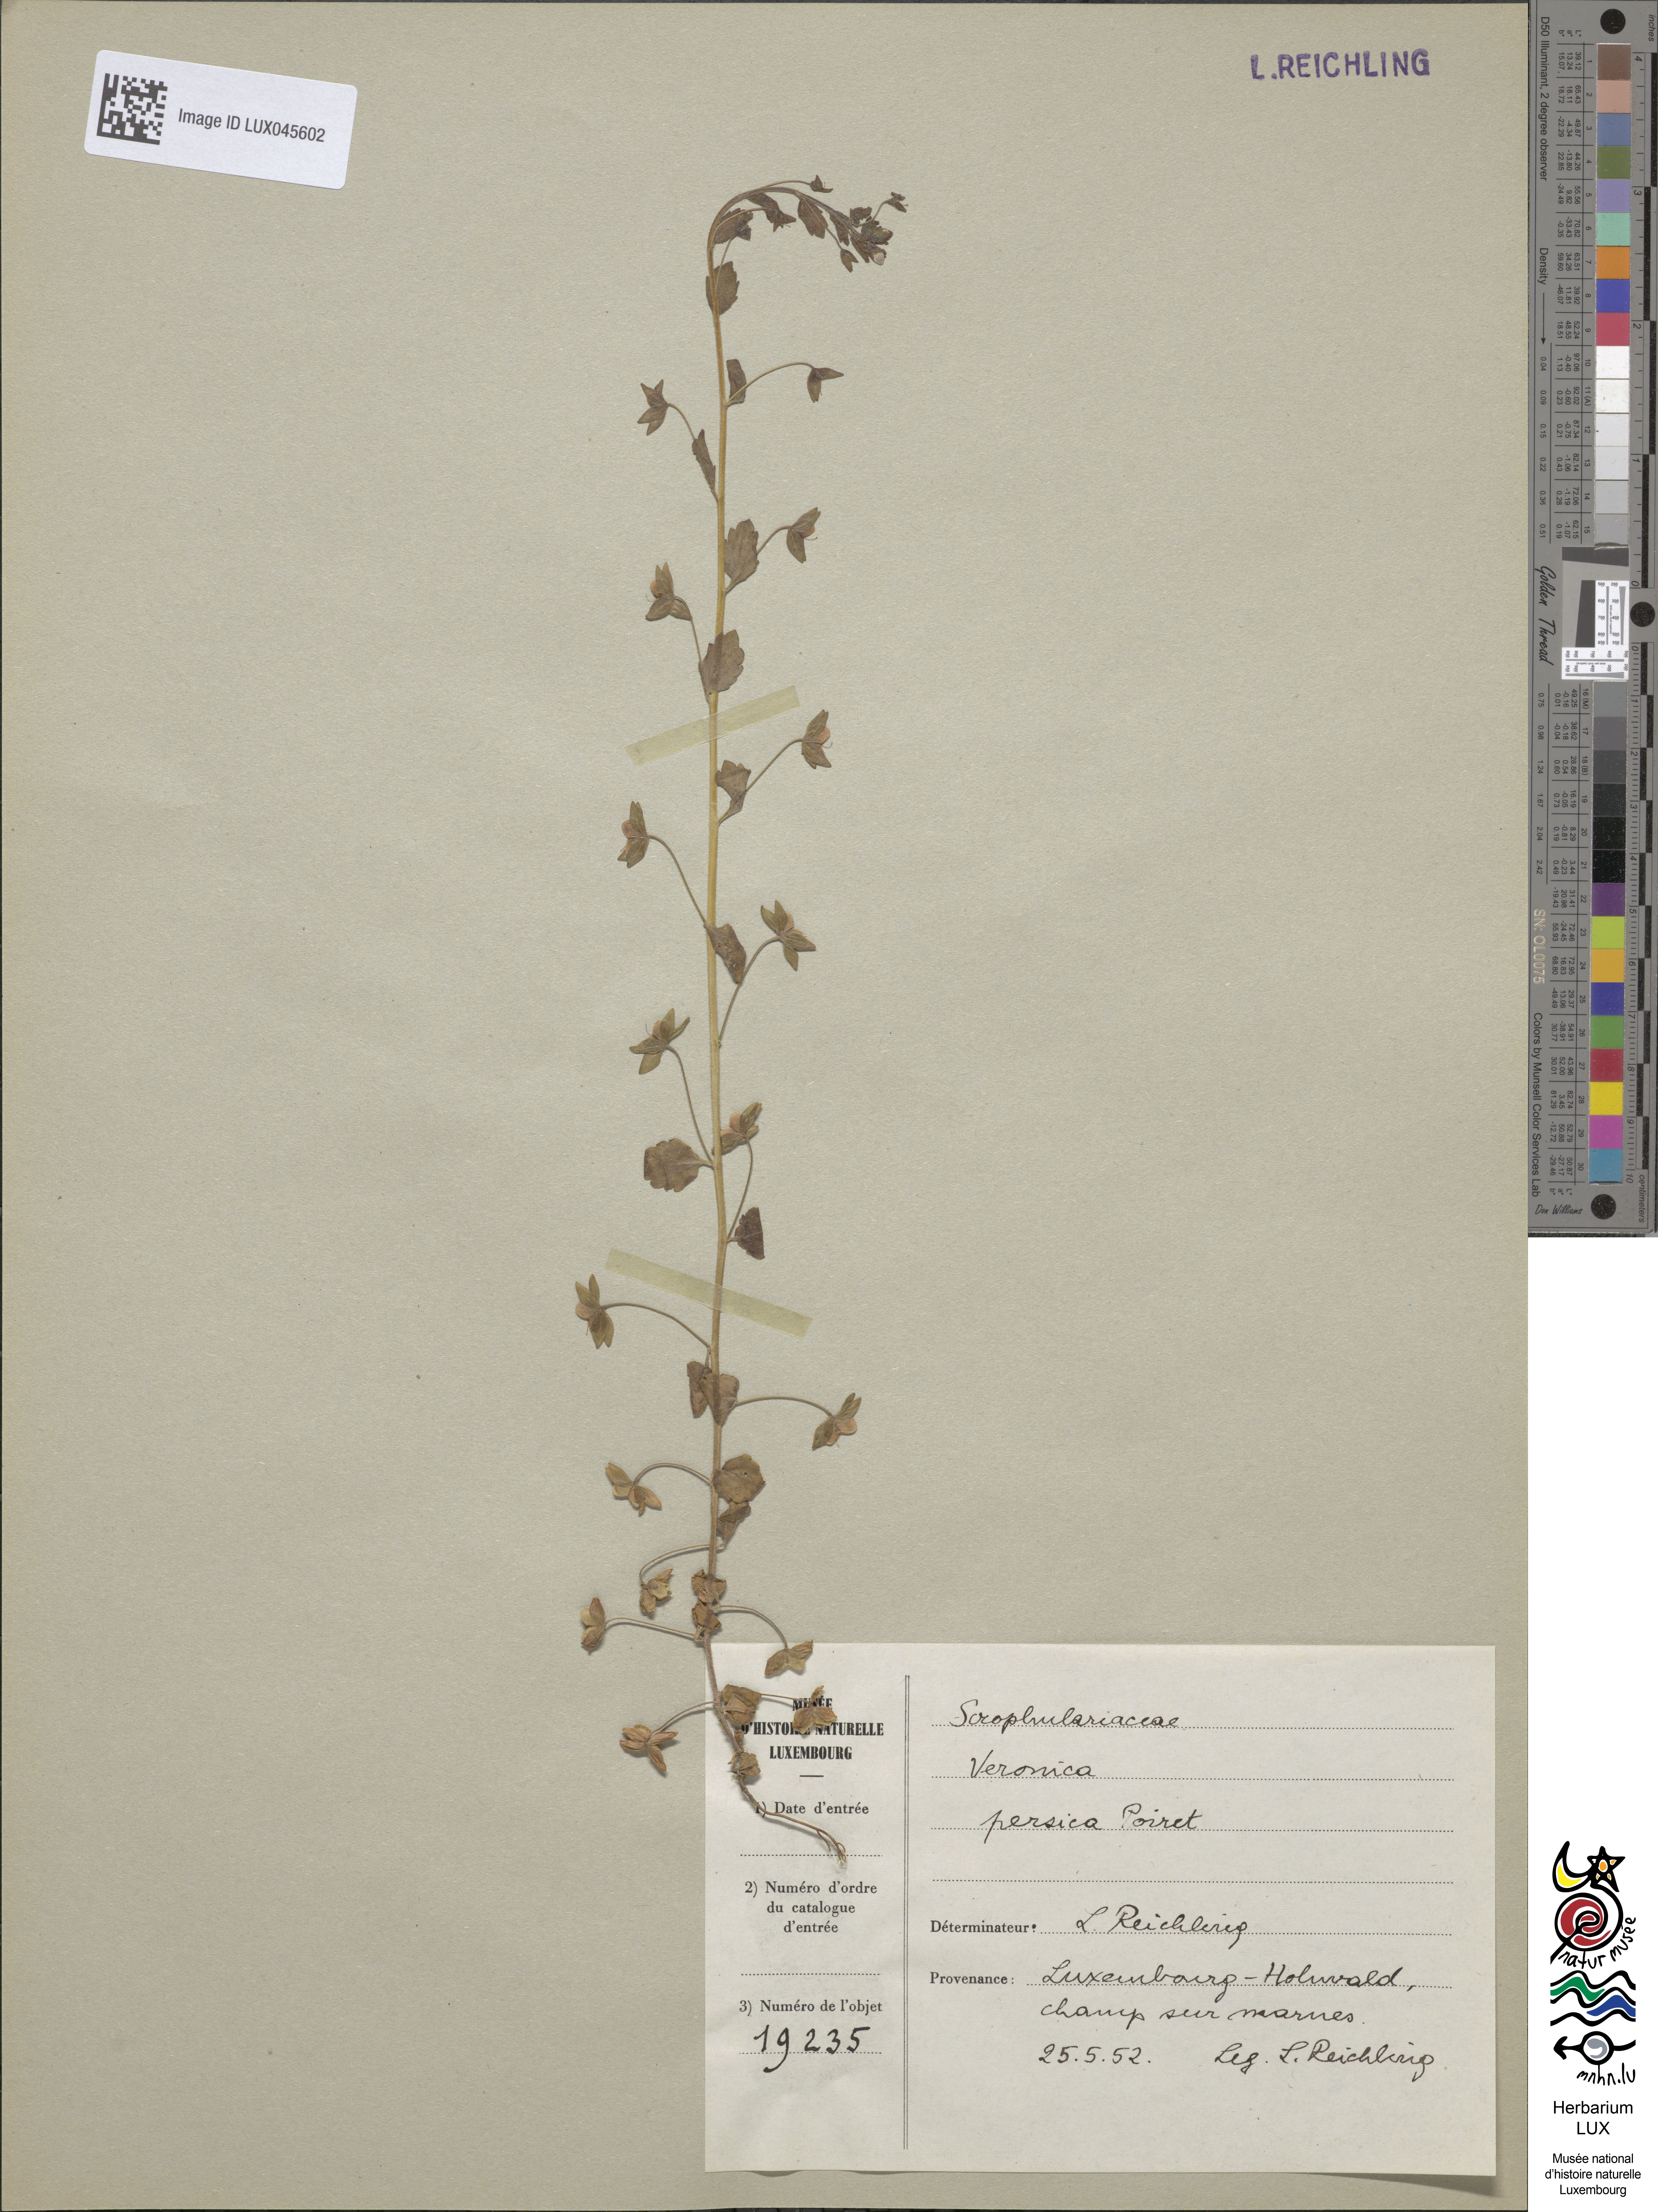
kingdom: Plantae
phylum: Tracheophyta
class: Magnoliopsida
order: Lamiales
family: Plantaginaceae
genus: Veronica
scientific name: Veronica persica
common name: Common field-speedwell
